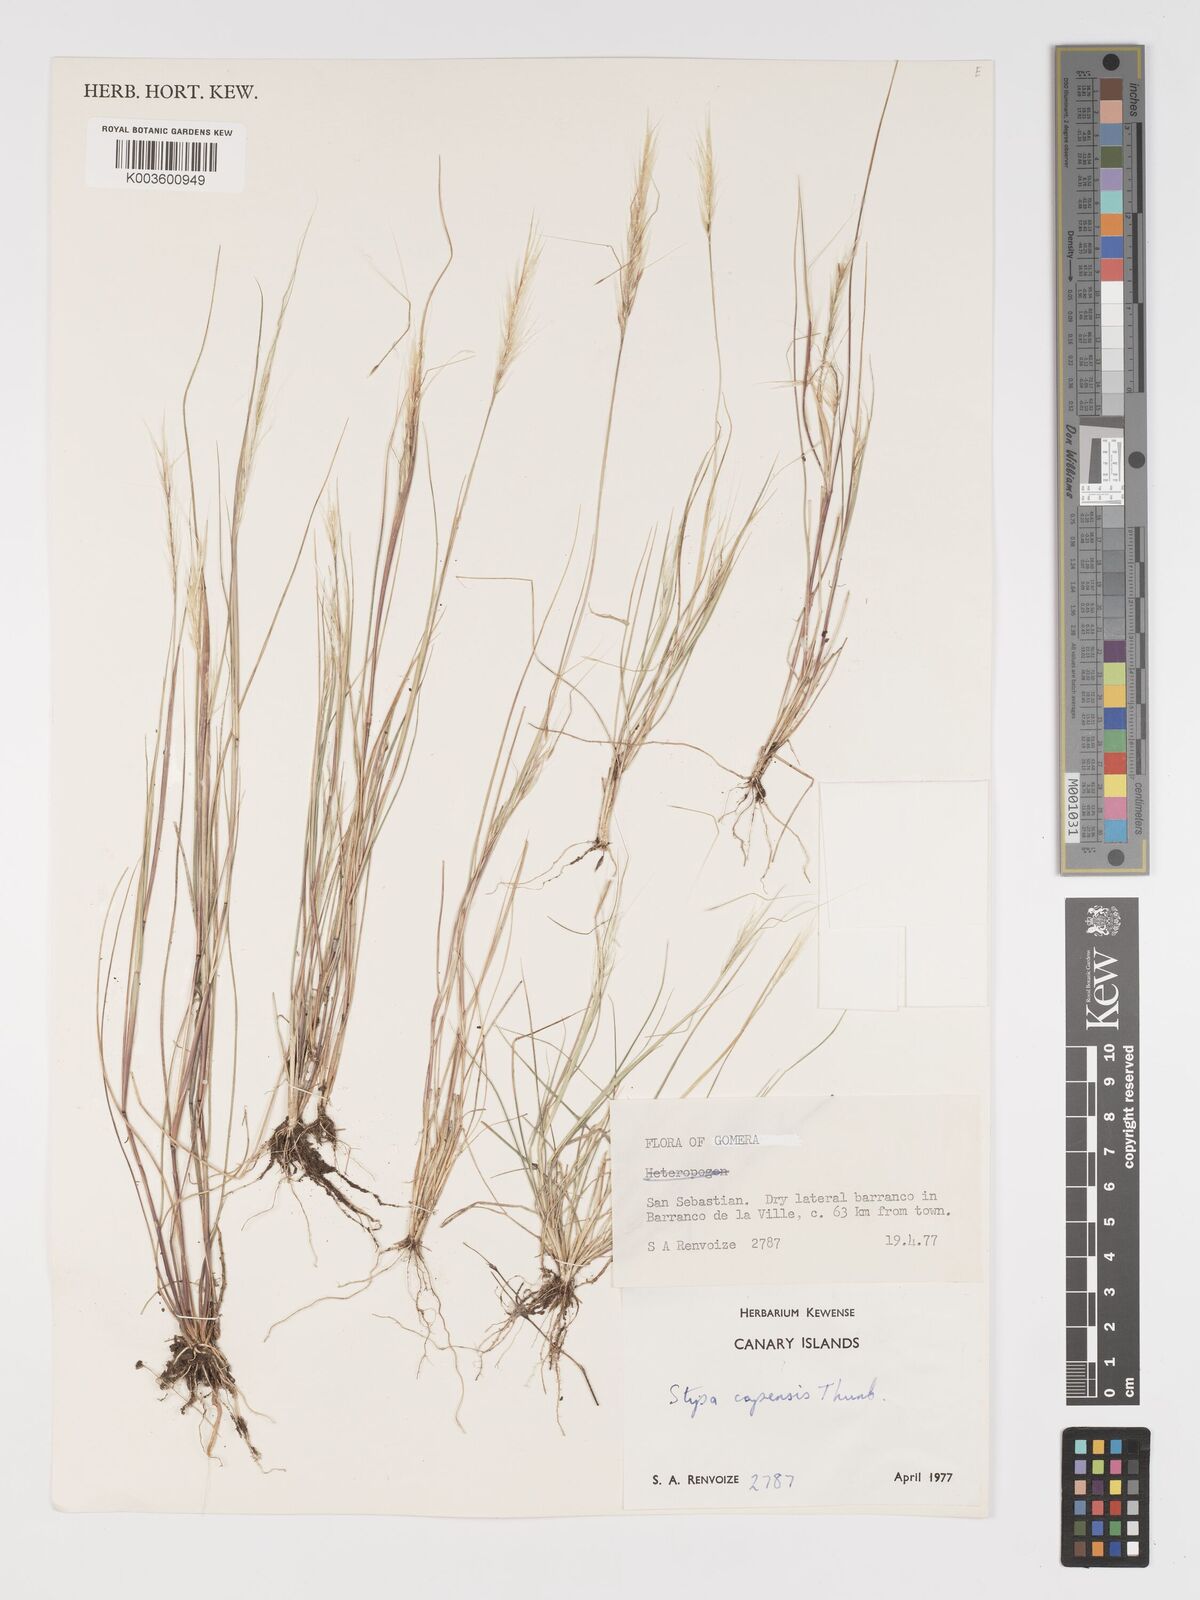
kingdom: Plantae
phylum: Tracheophyta
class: Liliopsida
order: Poales
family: Poaceae
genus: Stipellula
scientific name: Stipellula capensis
